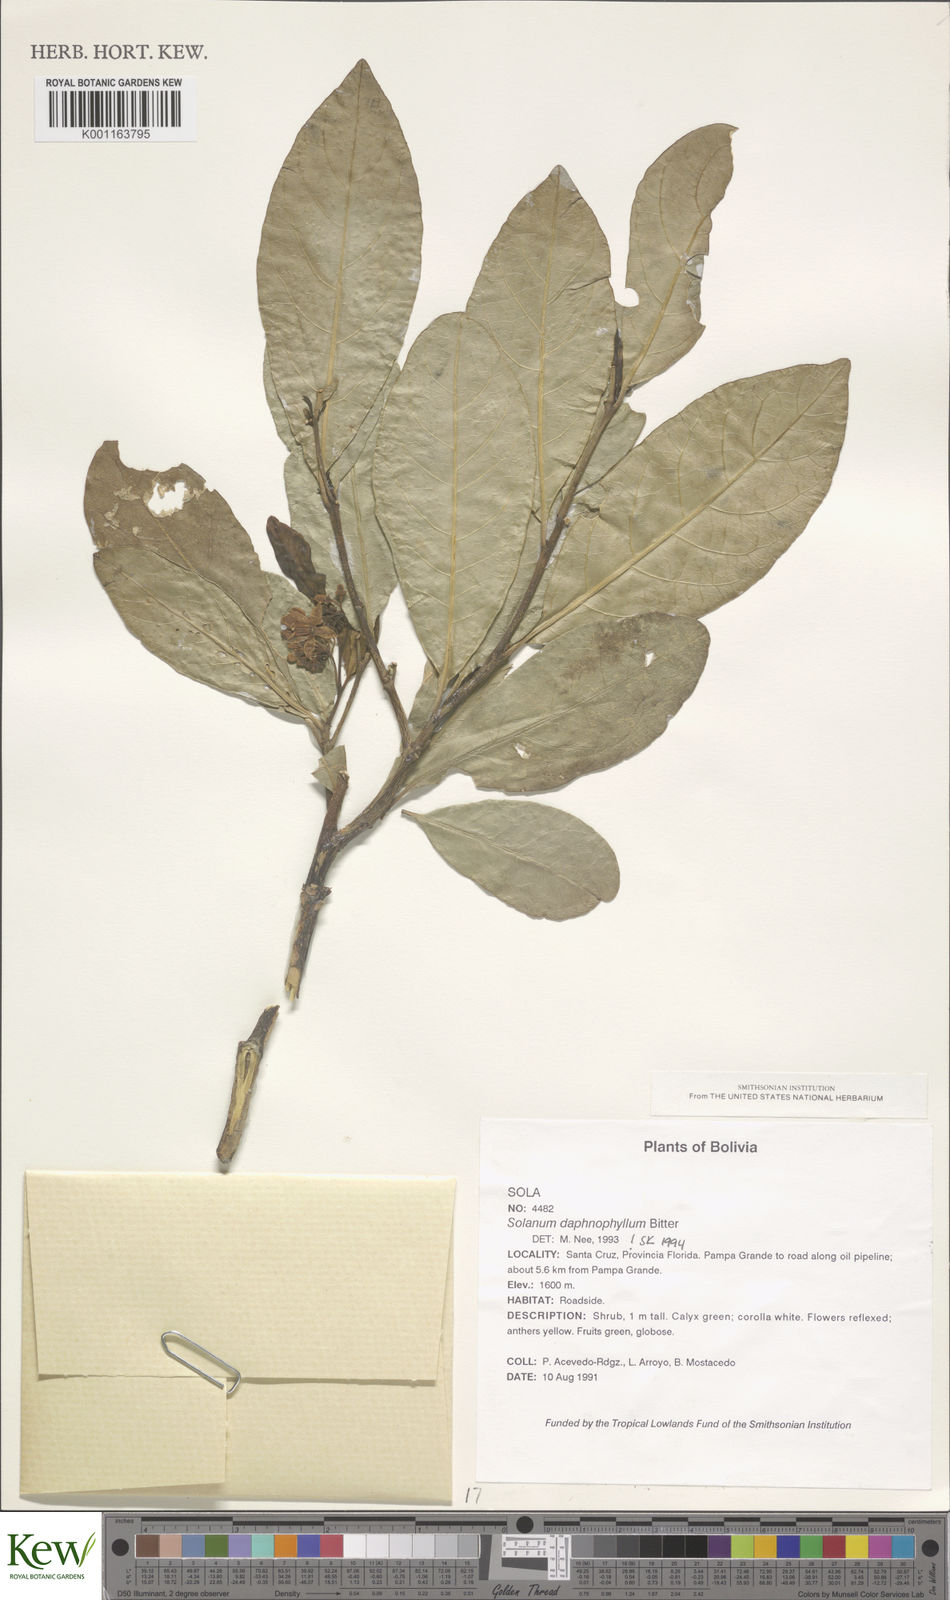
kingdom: Plantae
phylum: Tracheophyta
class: Magnoliopsida
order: Solanales
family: Solanaceae
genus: Solanum
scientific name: Solanum daphnophyllum
